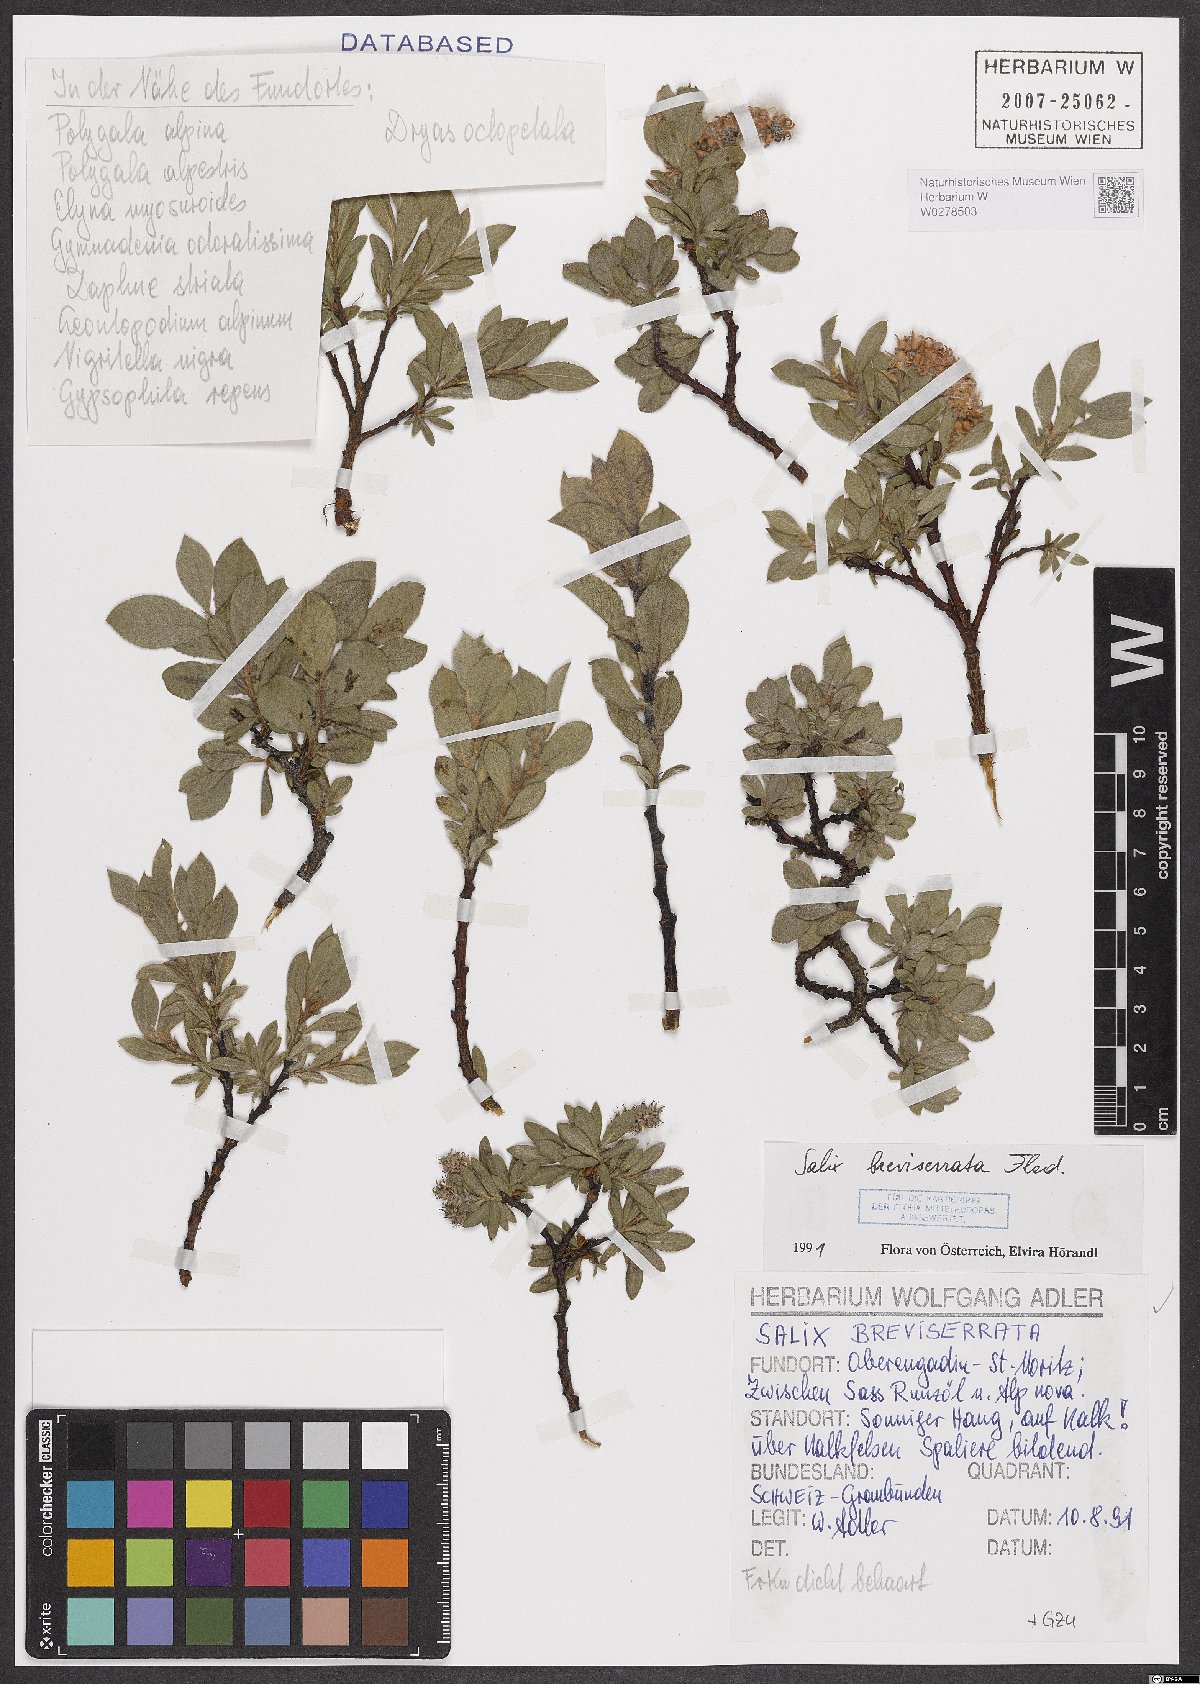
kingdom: Plantae
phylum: Tracheophyta
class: Magnoliopsida
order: Malpighiales
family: Salicaceae
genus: Salix
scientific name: Salix breviserrata
